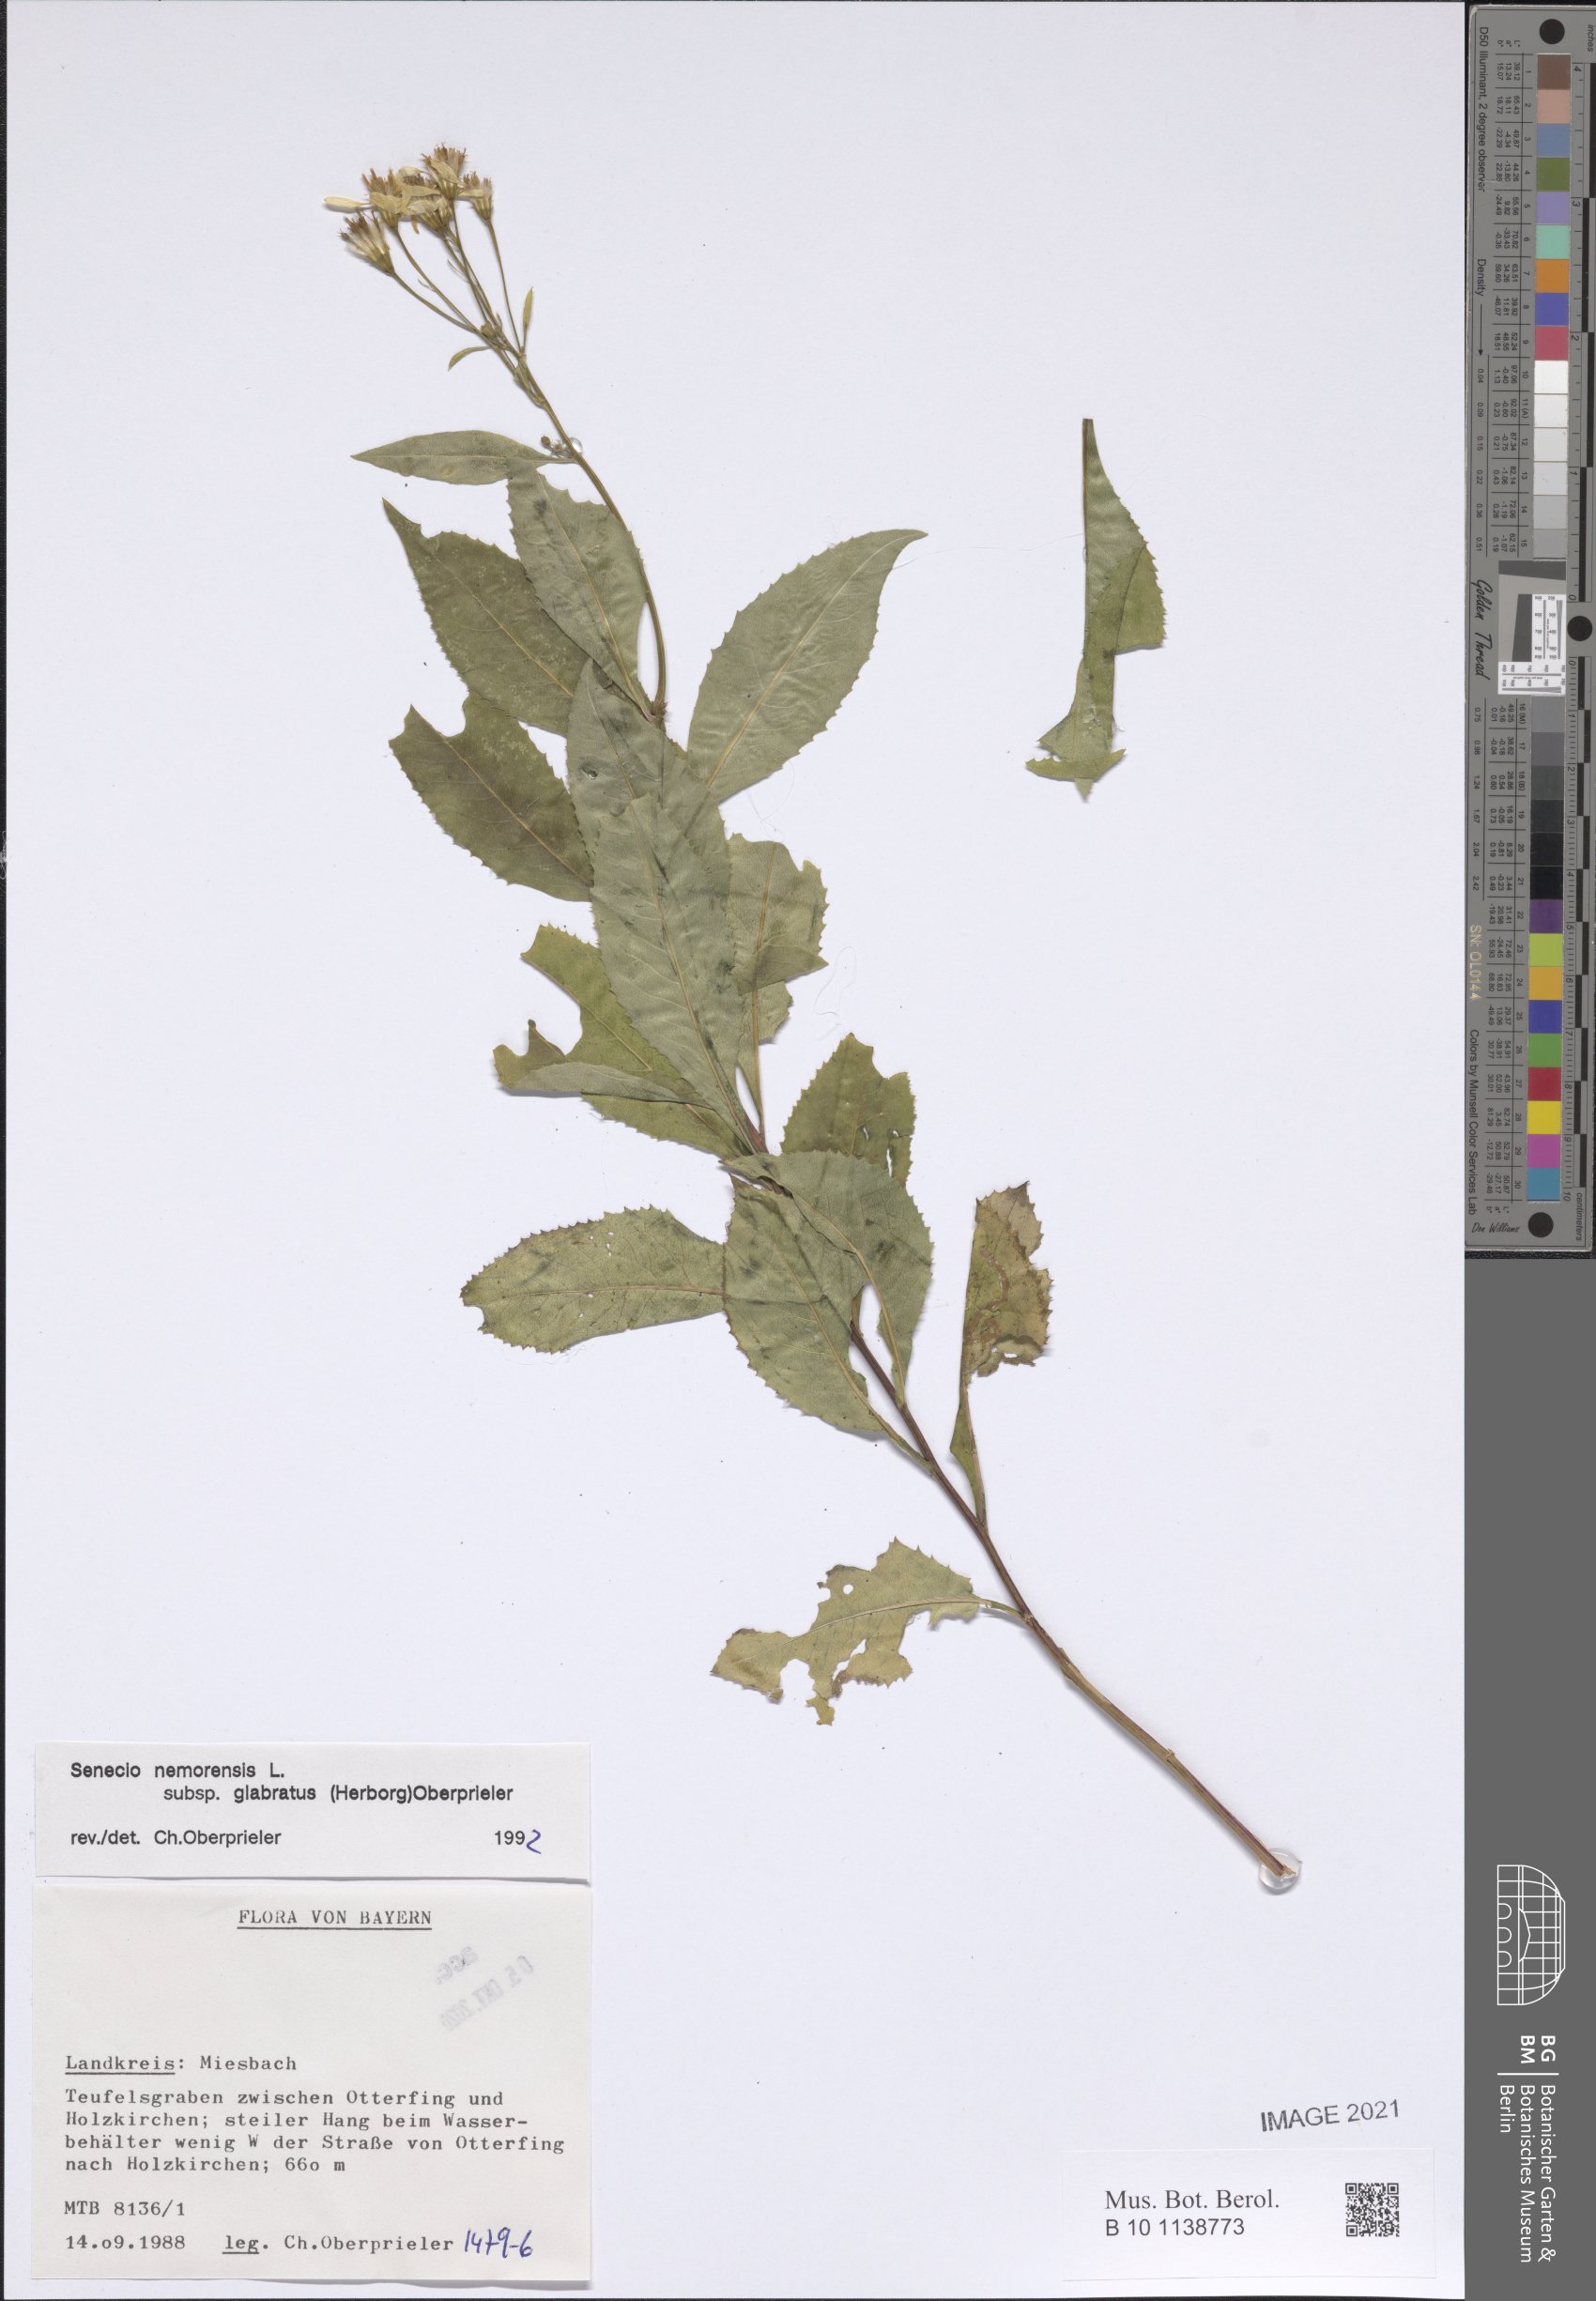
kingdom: Plantae
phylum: Tracheophyta
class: Magnoliopsida
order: Asterales
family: Asteraceae
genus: Senecio
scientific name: Senecio germanicus
